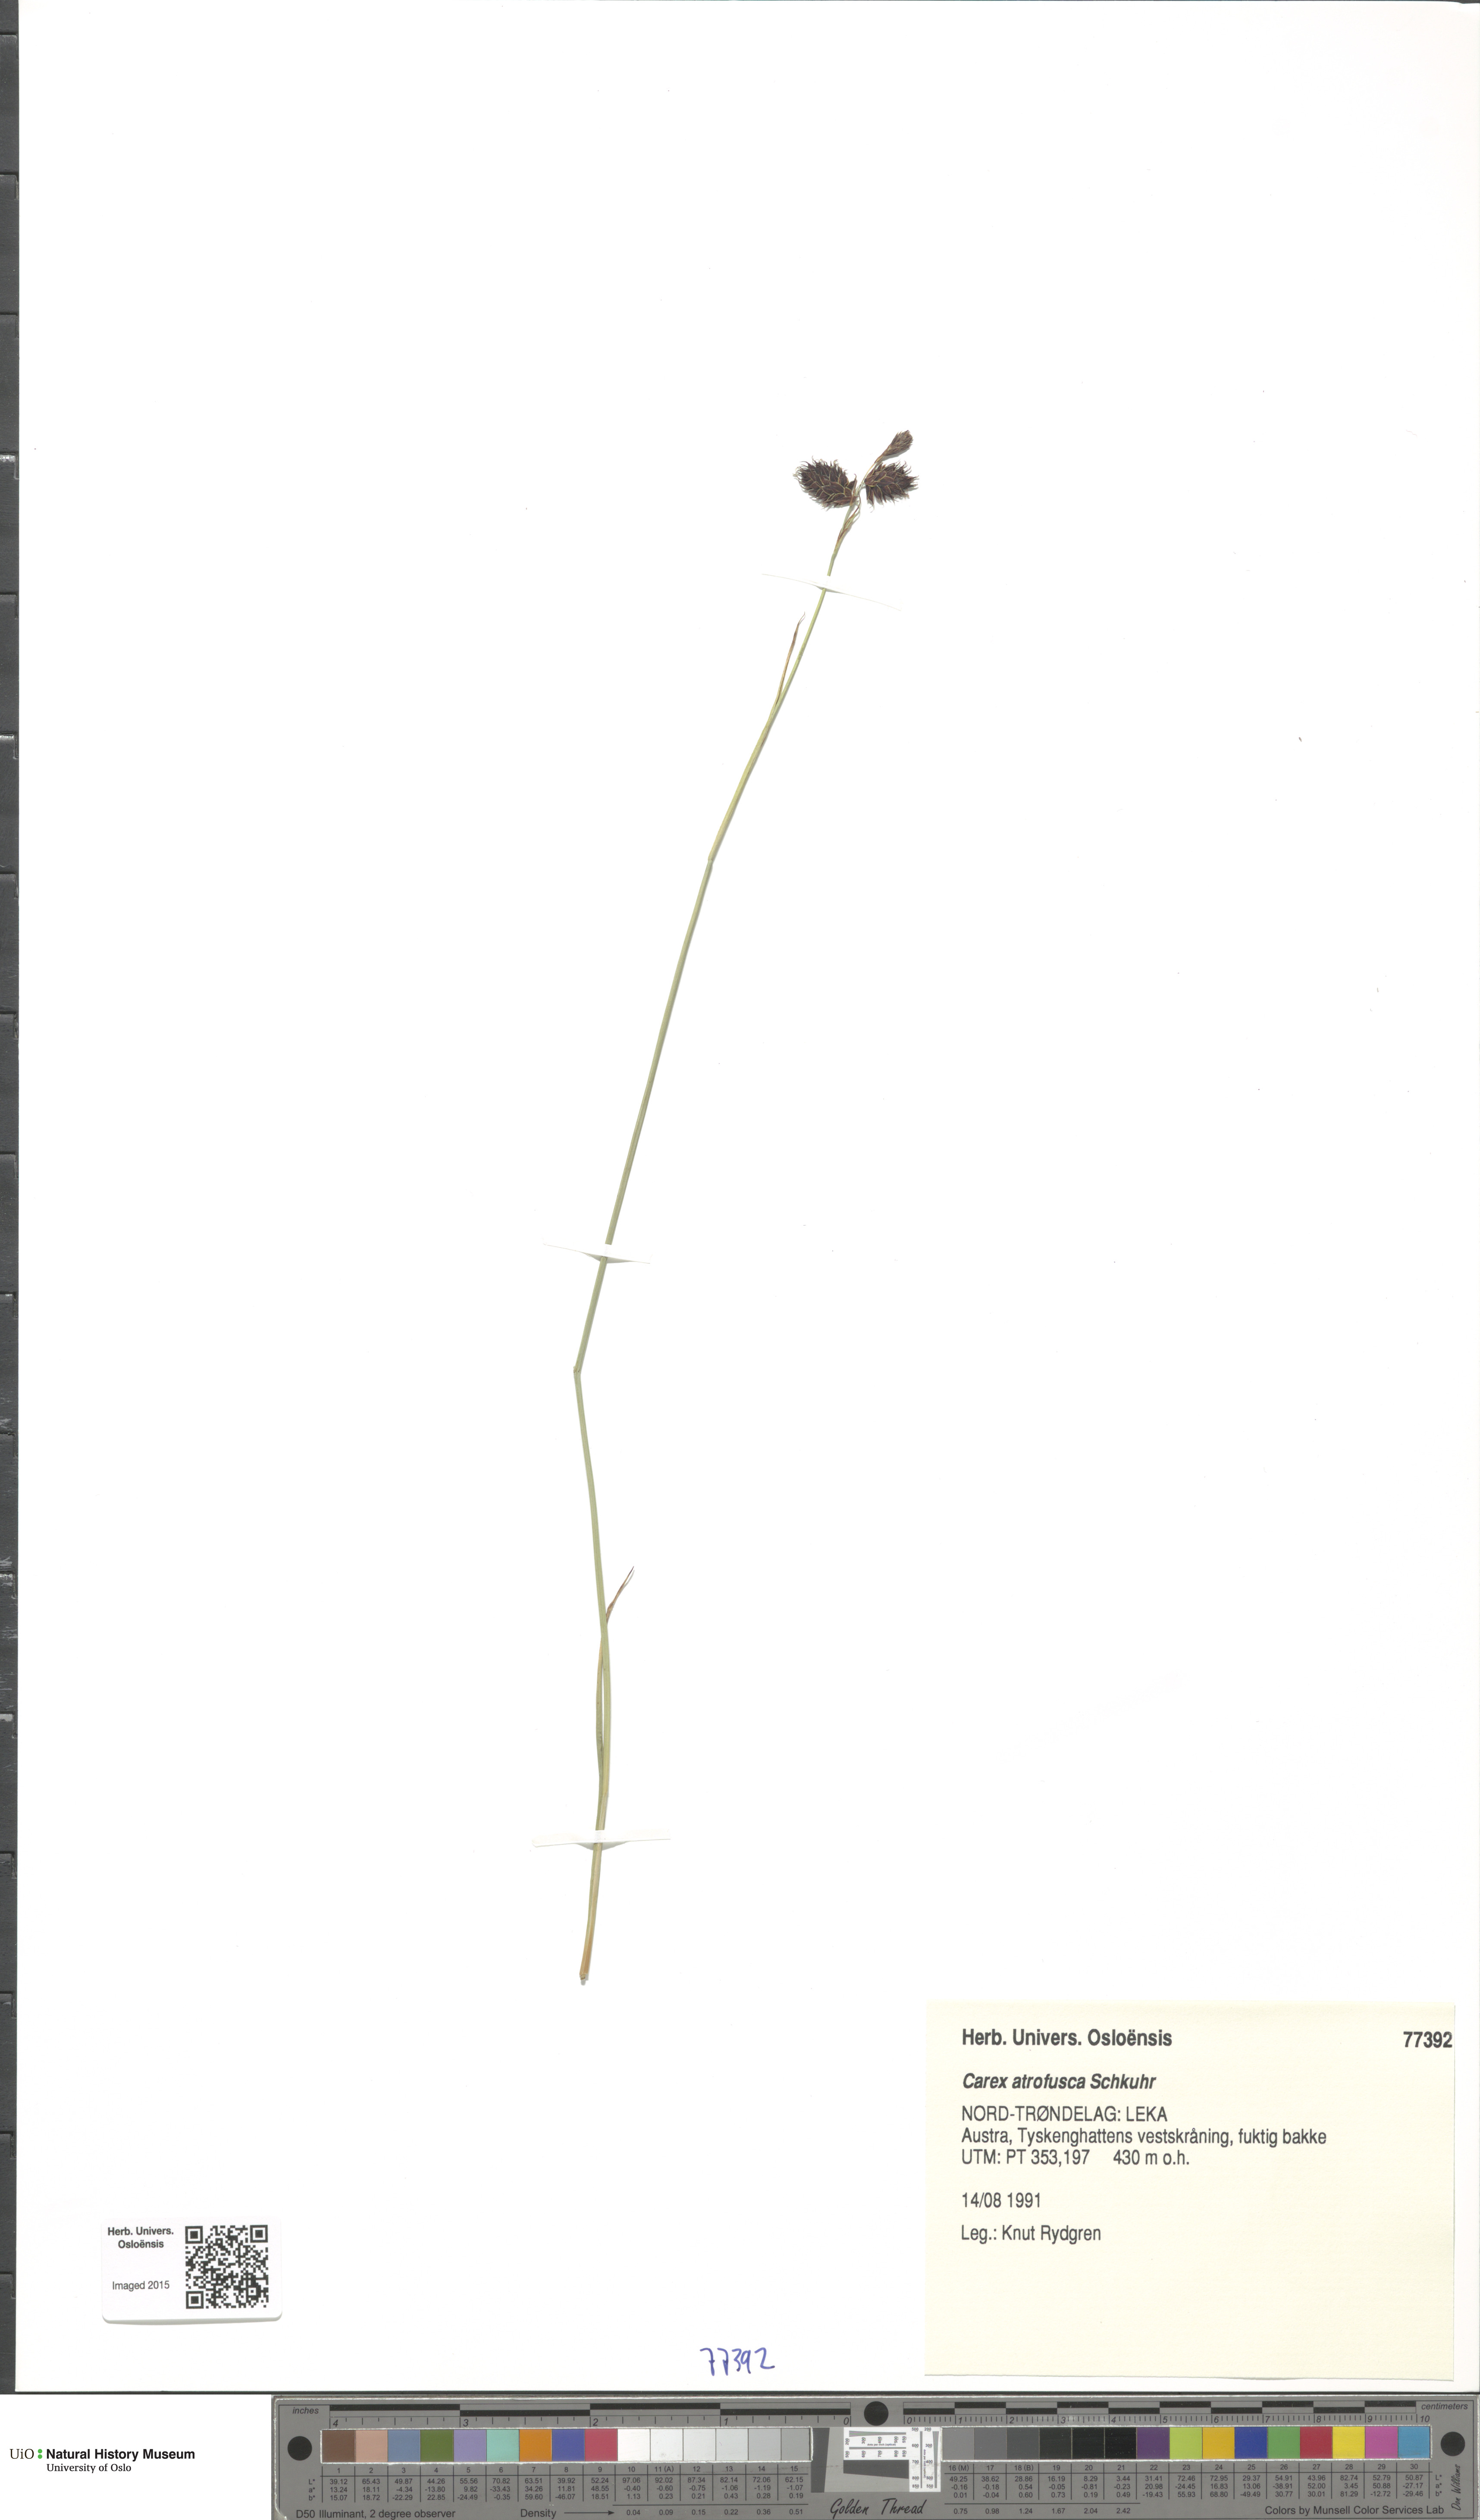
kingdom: Plantae
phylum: Tracheophyta
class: Liliopsida
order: Poales
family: Cyperaceae
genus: Carex
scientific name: Carex atrofusca
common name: Scorched alpine-sedge
